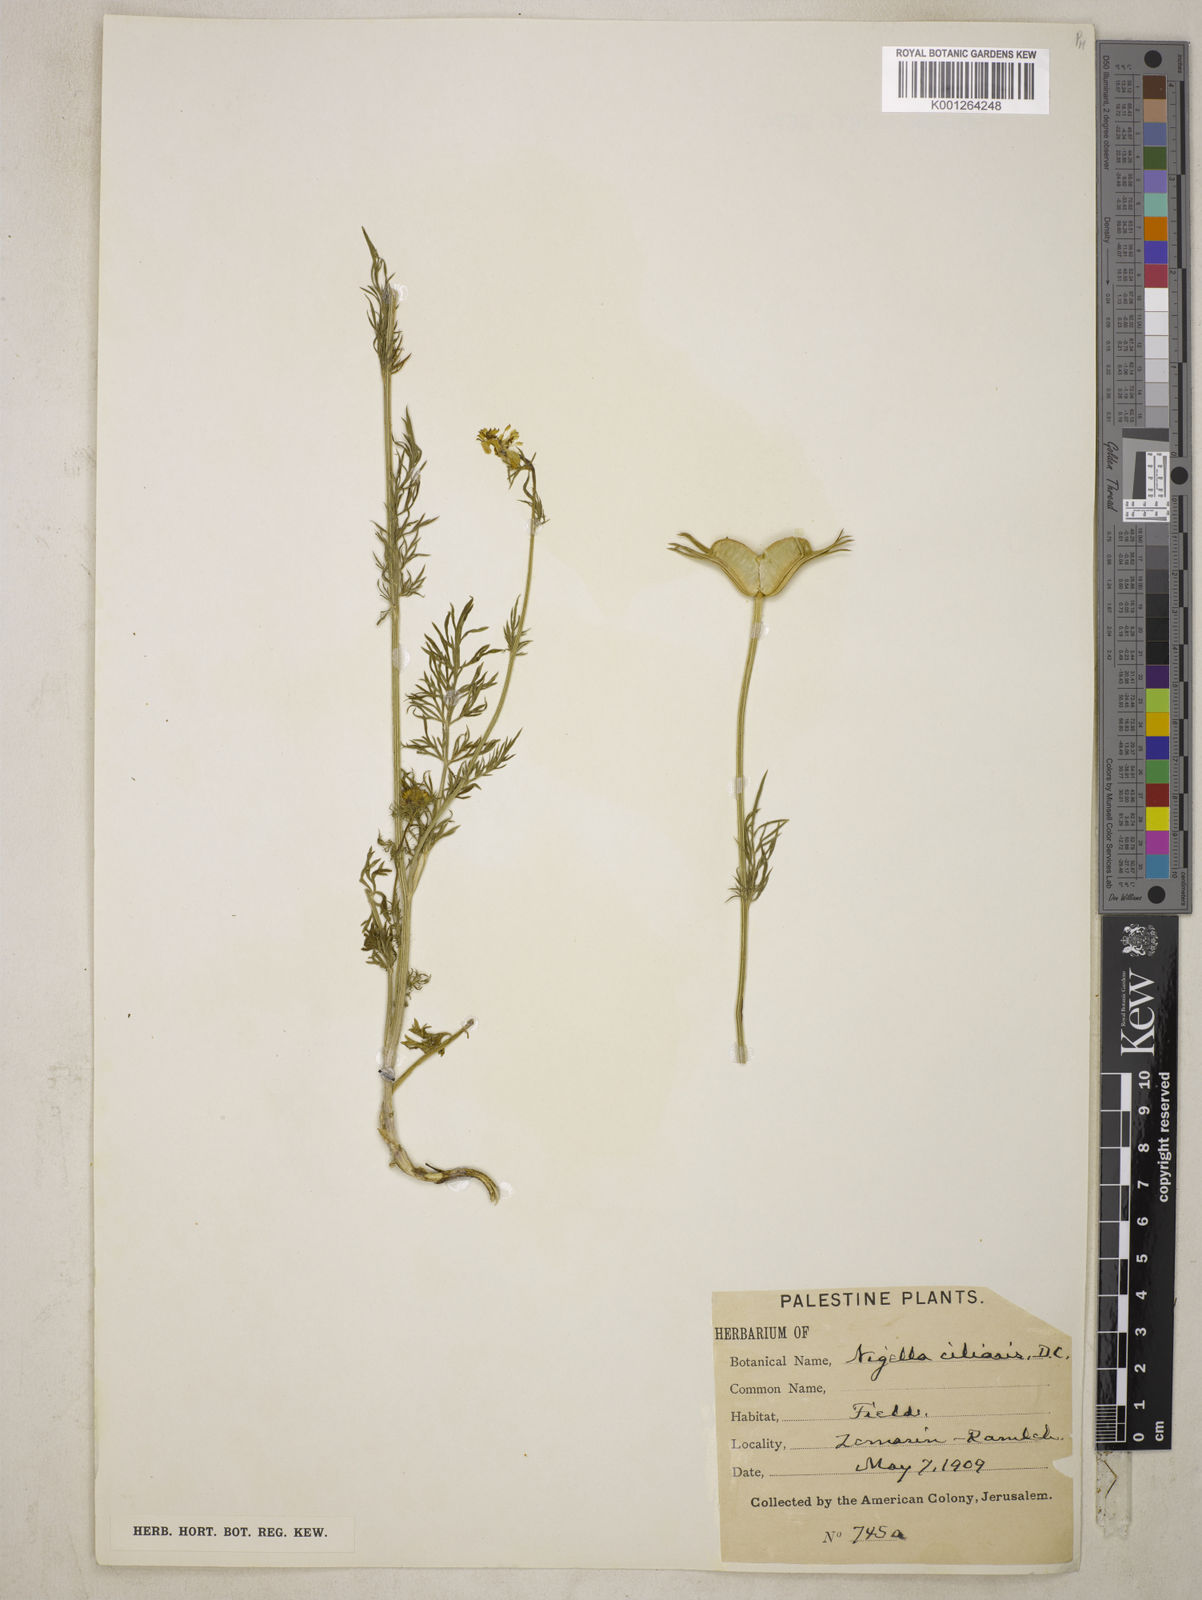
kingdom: Plantae
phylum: Tracheophyta
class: Magnoliopsida
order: Ranunculales
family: Ranunculaceae
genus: Nigella
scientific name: Nigella ciliaris
